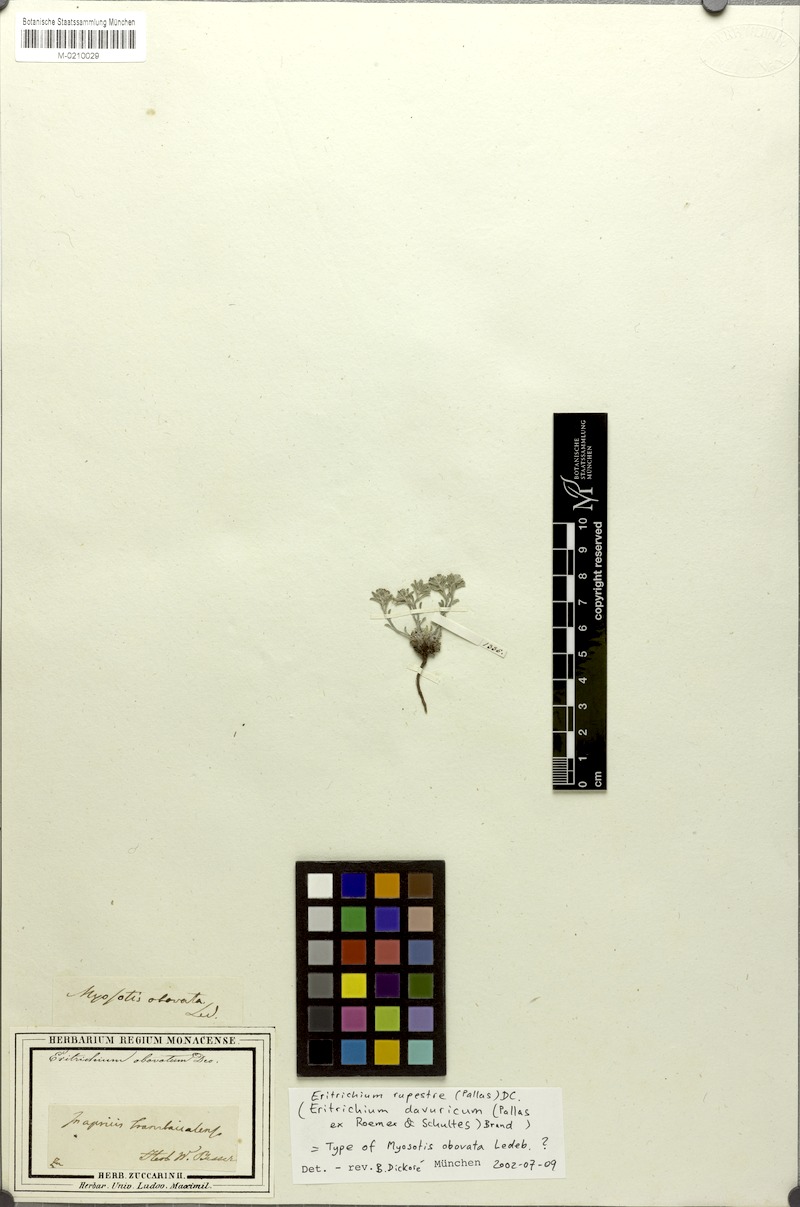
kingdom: Plantae
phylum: Tracheophyta
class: Magnoliopsida
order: Boraginales
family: Boraginaceae
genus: Eritrichium
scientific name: Eritrichium rupestre
